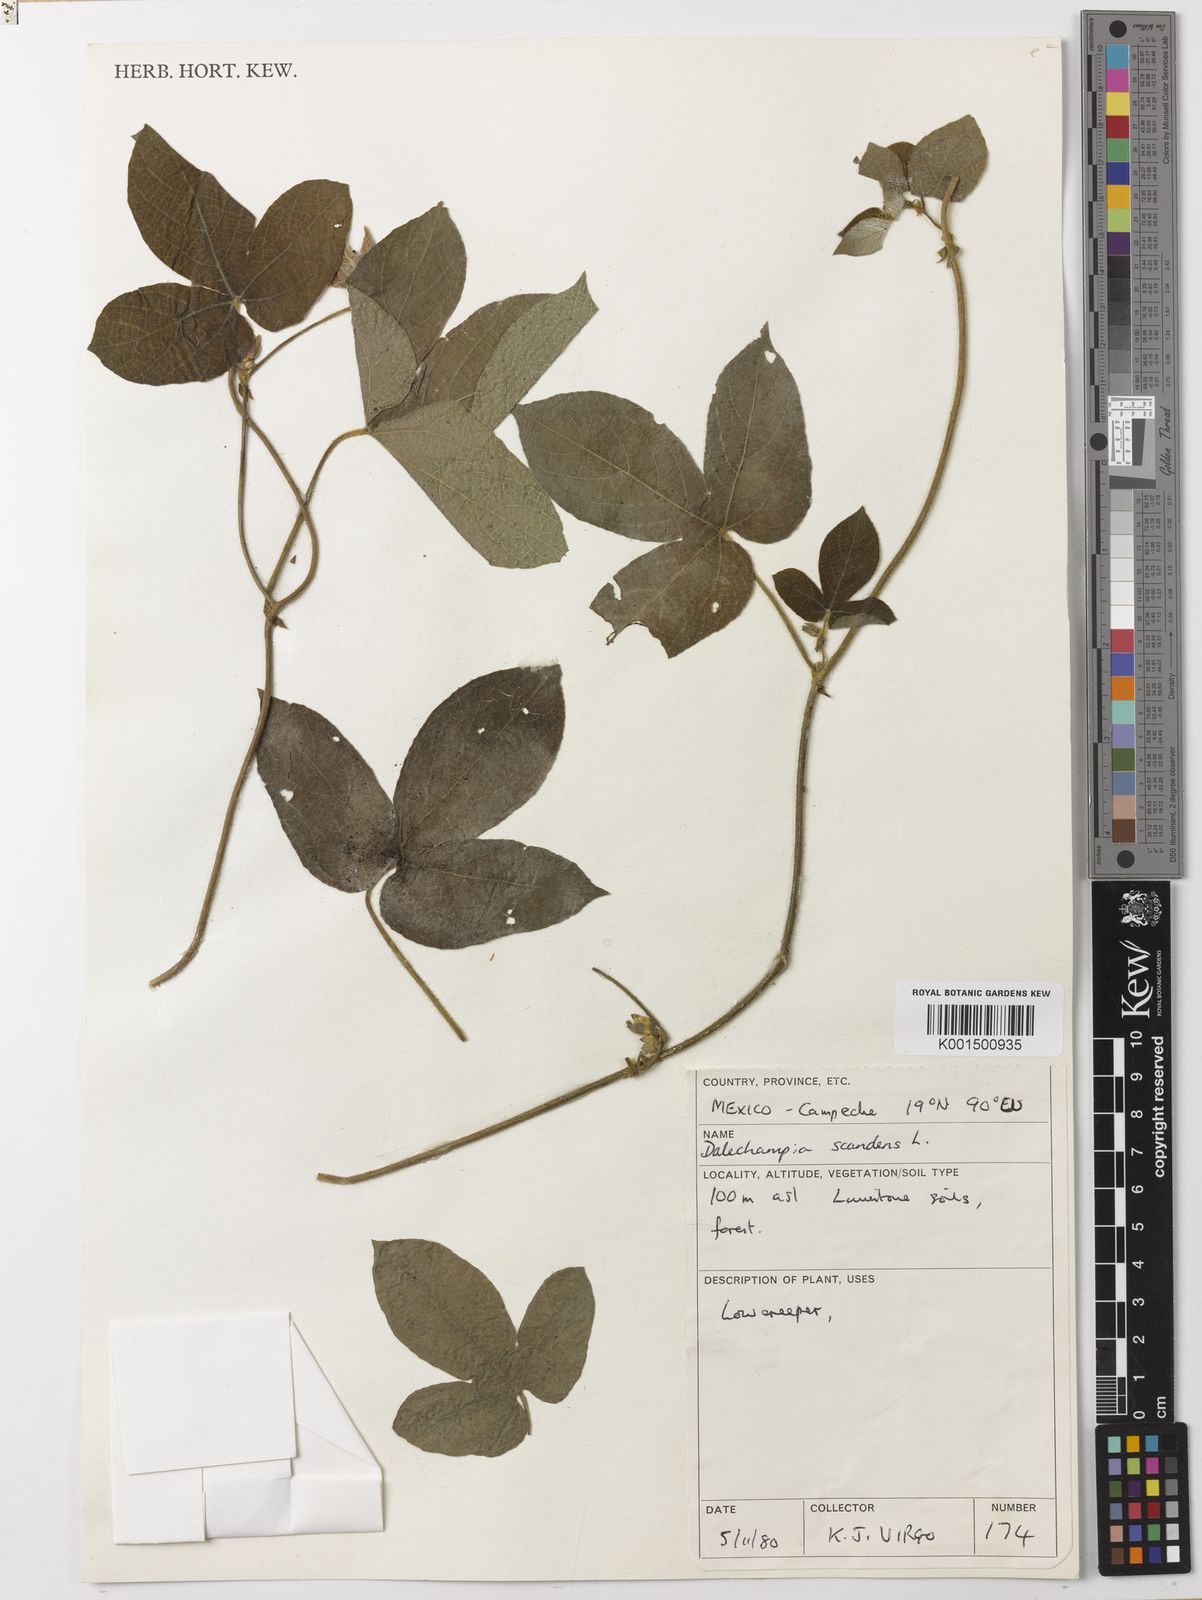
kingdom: Plantae
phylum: Tracheophyta
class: Magnoliopsida
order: Malpighiales
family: Euphorbiaceae
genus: Dalechampia
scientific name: Dalechampia scandens
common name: Spurgecreeper
